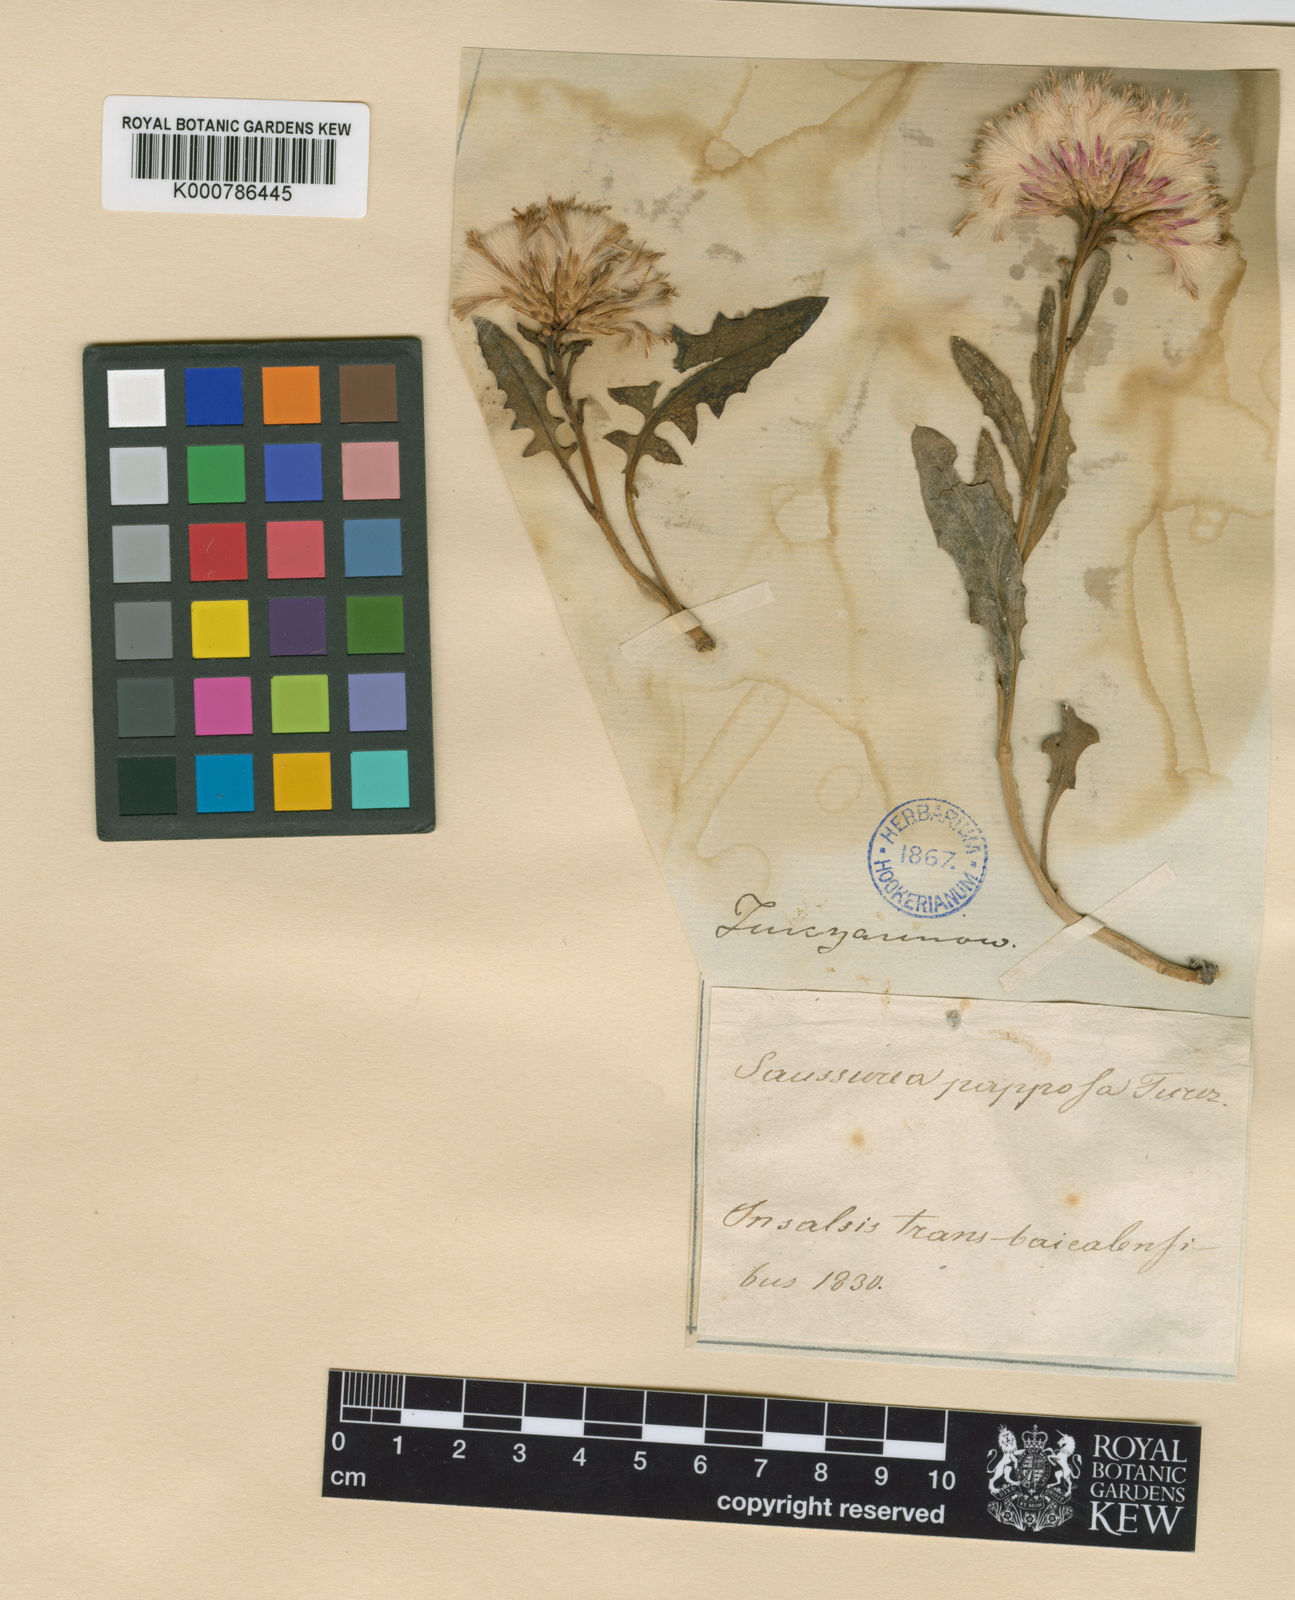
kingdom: Plantae
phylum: Tracheophyta
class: Magnoliopsida
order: Asterales
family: Asteraceae
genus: Saussurea
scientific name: Saussurea salsa
